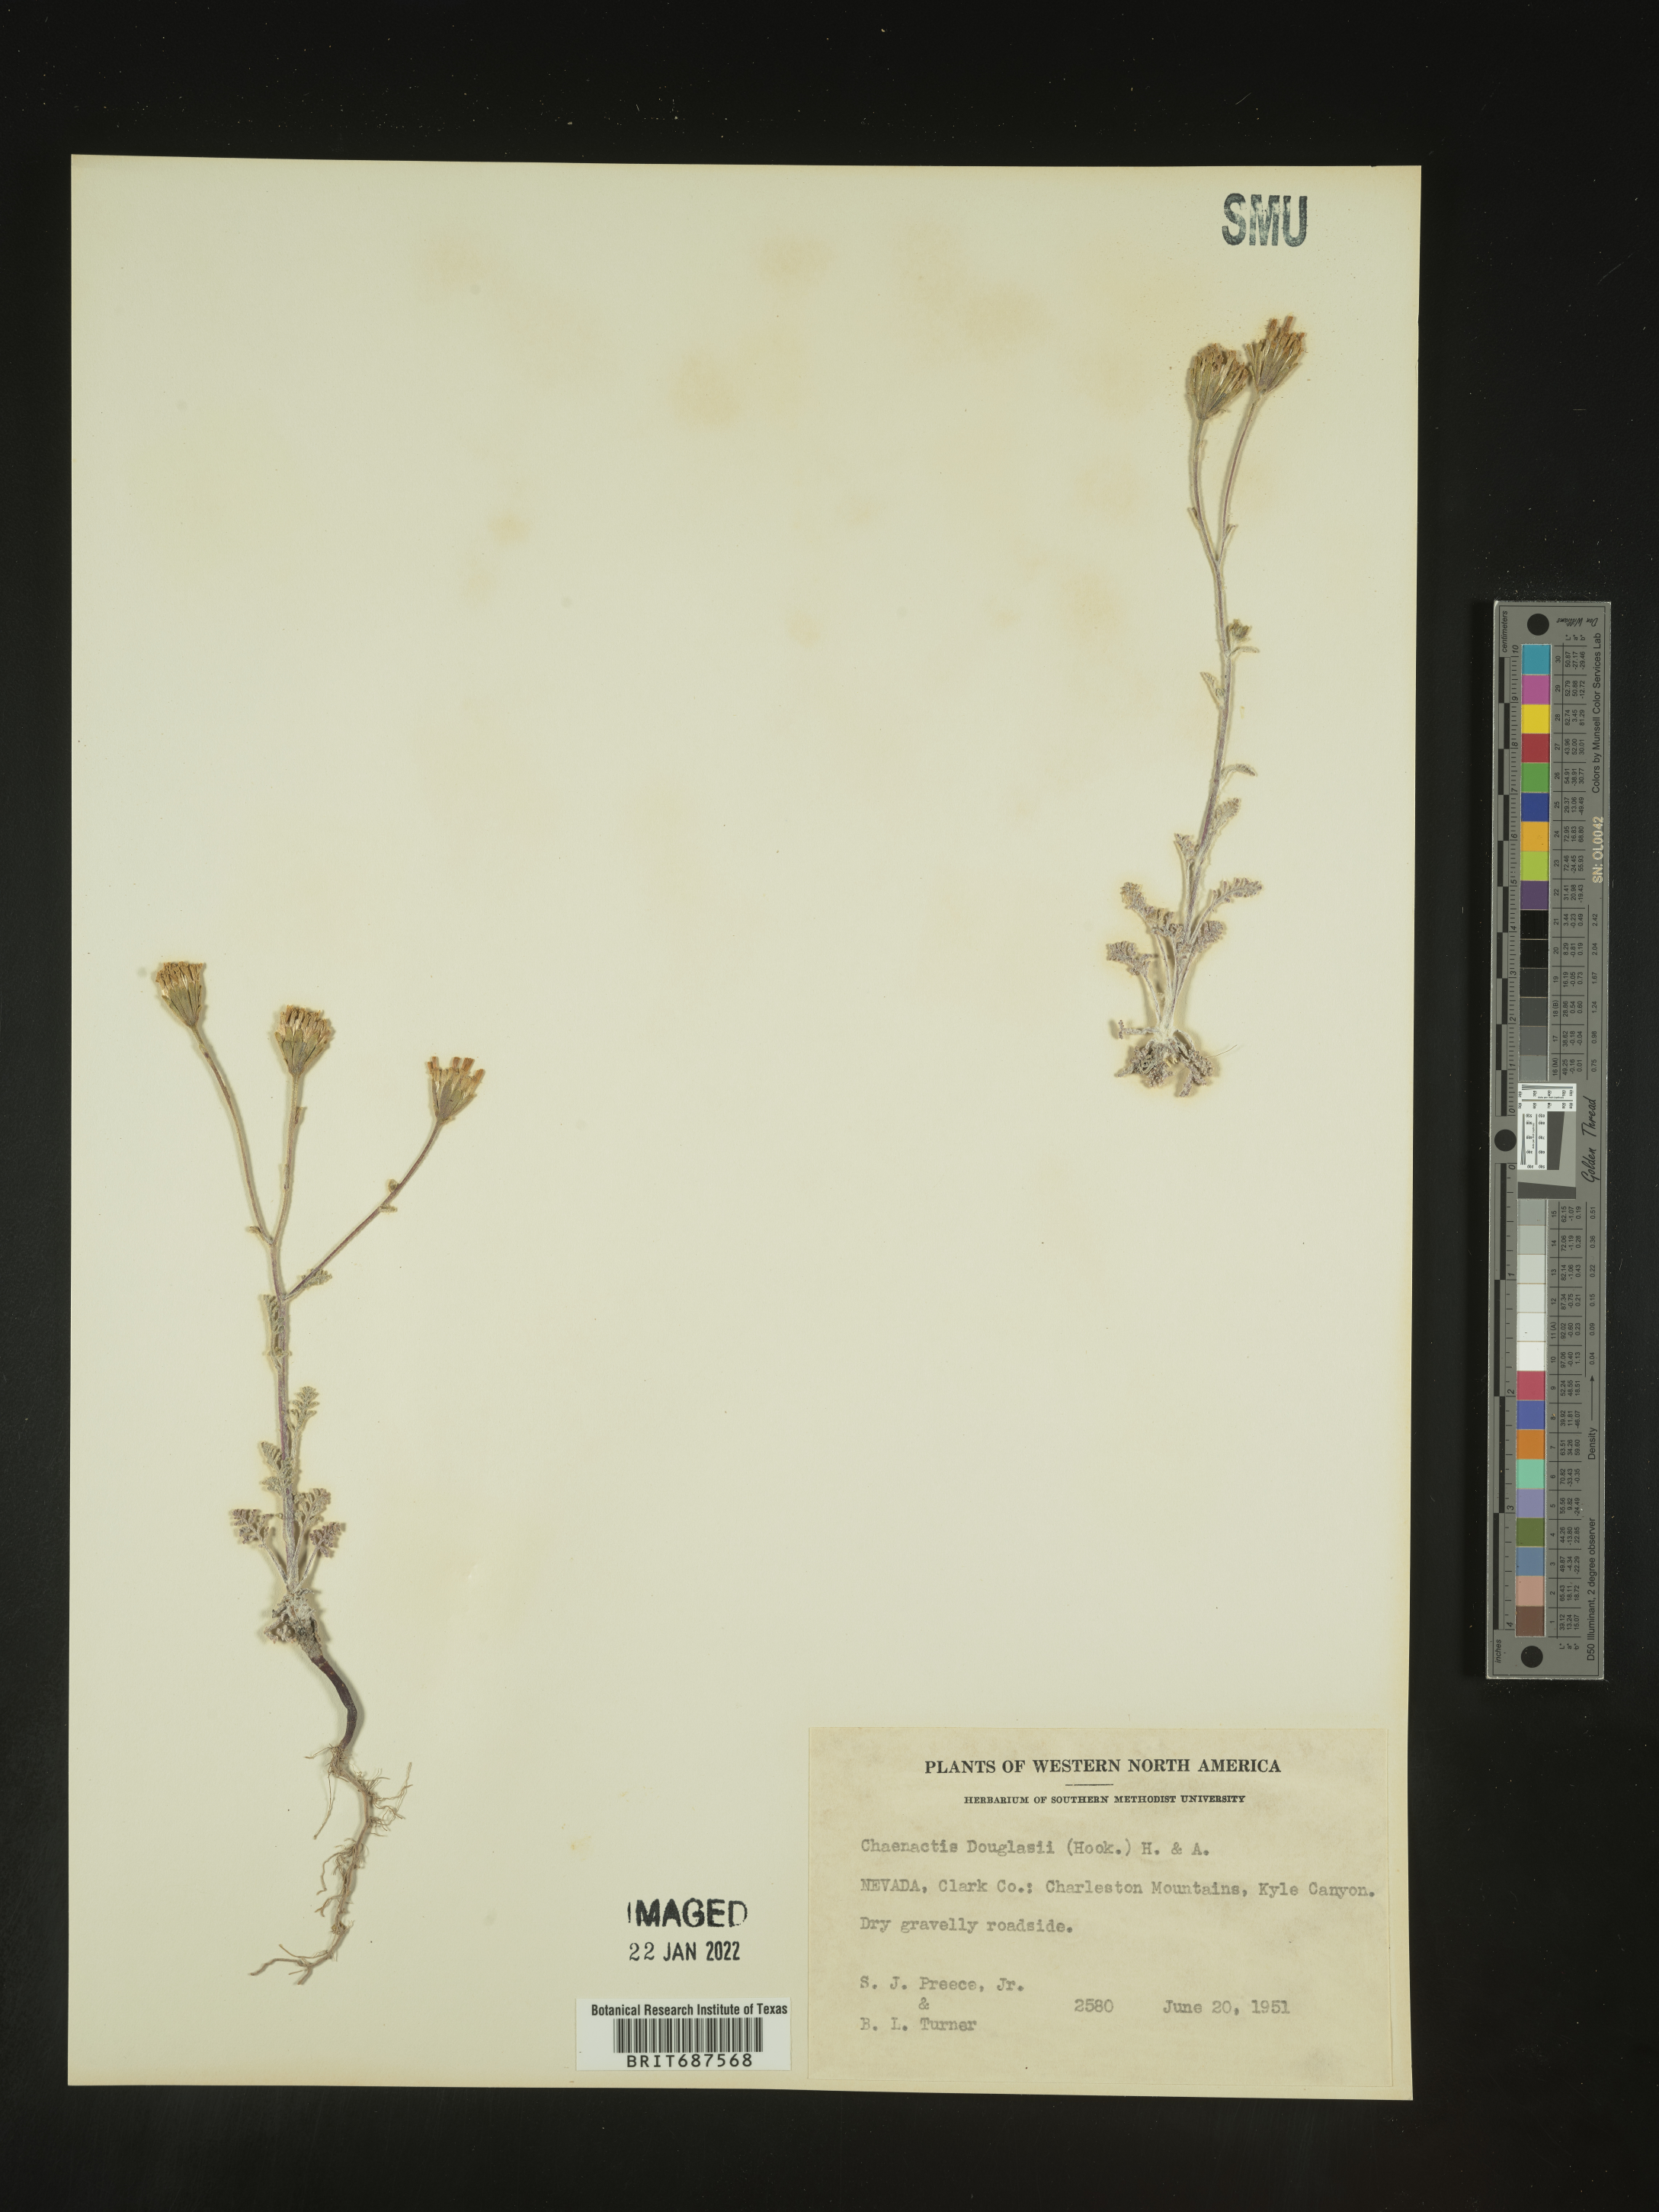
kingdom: Plantae
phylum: Tracheophyta
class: Magnoliopsida
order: Asterales
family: Asteraceae
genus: Chaenactis
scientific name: Chaenactis douglasii
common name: Hoary pincushion
